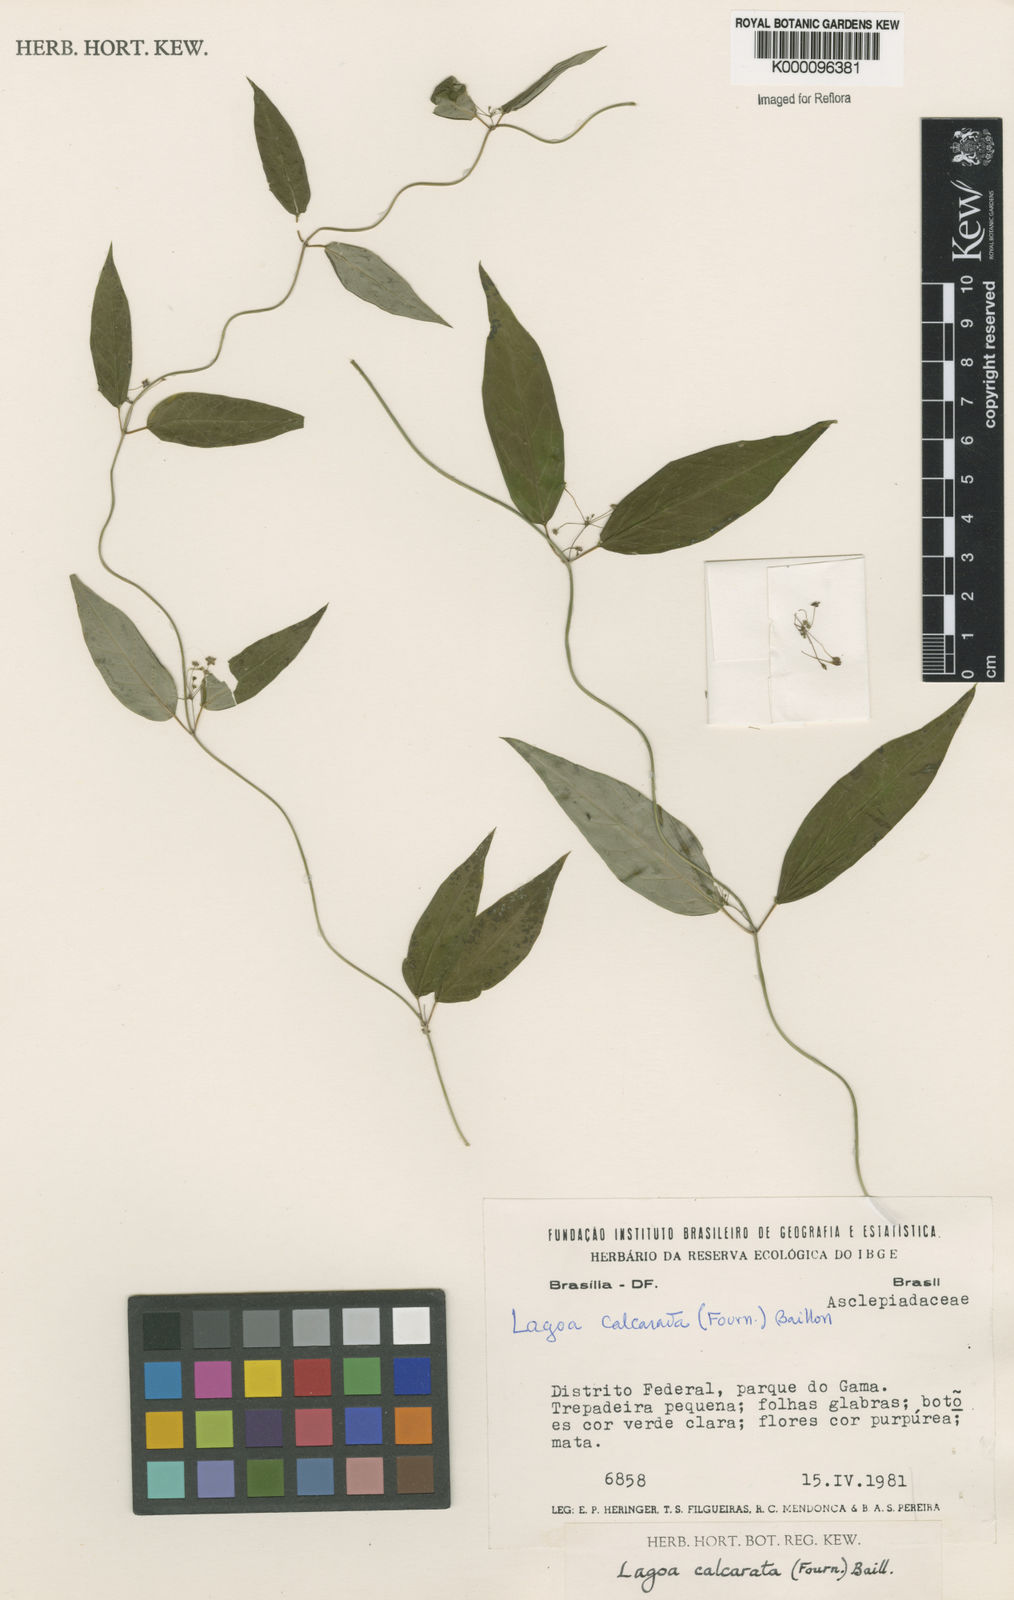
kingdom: Plantae
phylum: Tracheophyta
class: Magnoliopsida
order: Gentianales
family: Apocynaceae
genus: Petalostelma
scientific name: Petalostelma martianum
